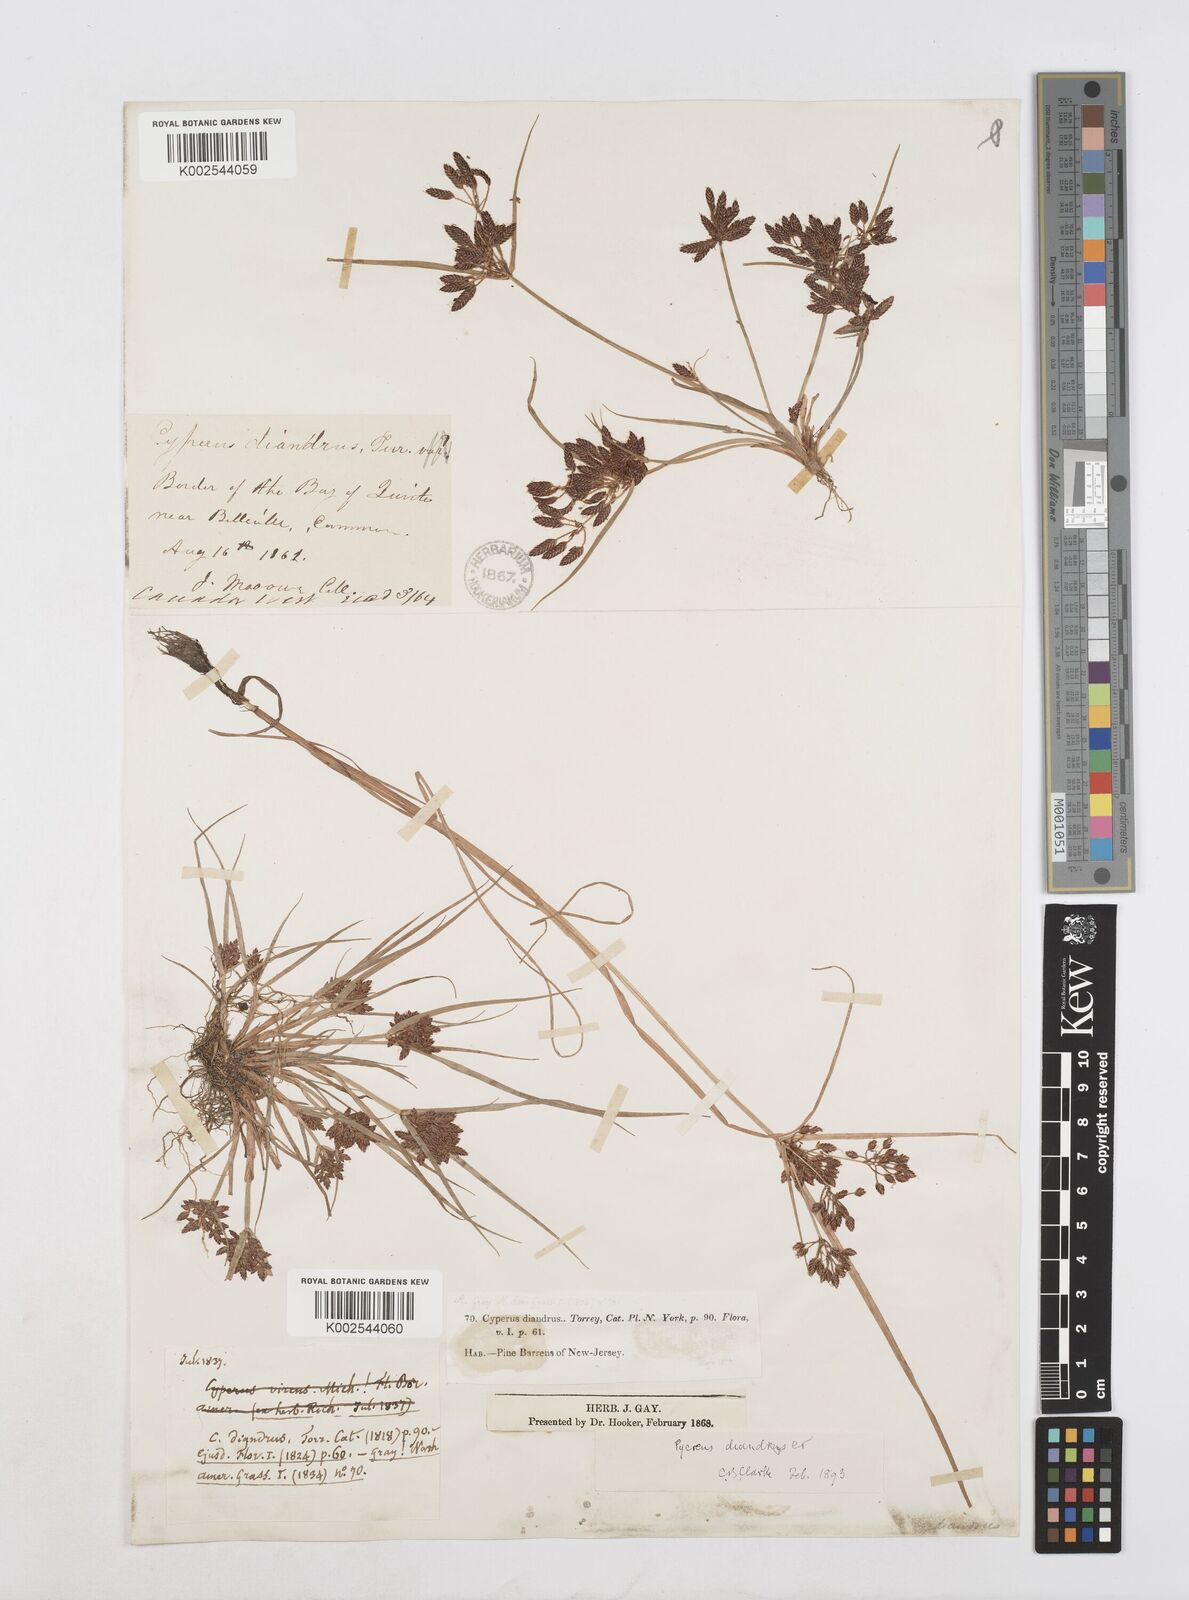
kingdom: Plantae
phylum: Tracheophyta
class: Liliopsida
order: Poales
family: Cyperaceae
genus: Cyperus
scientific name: Cyperus diandrus
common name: Low cyperus
